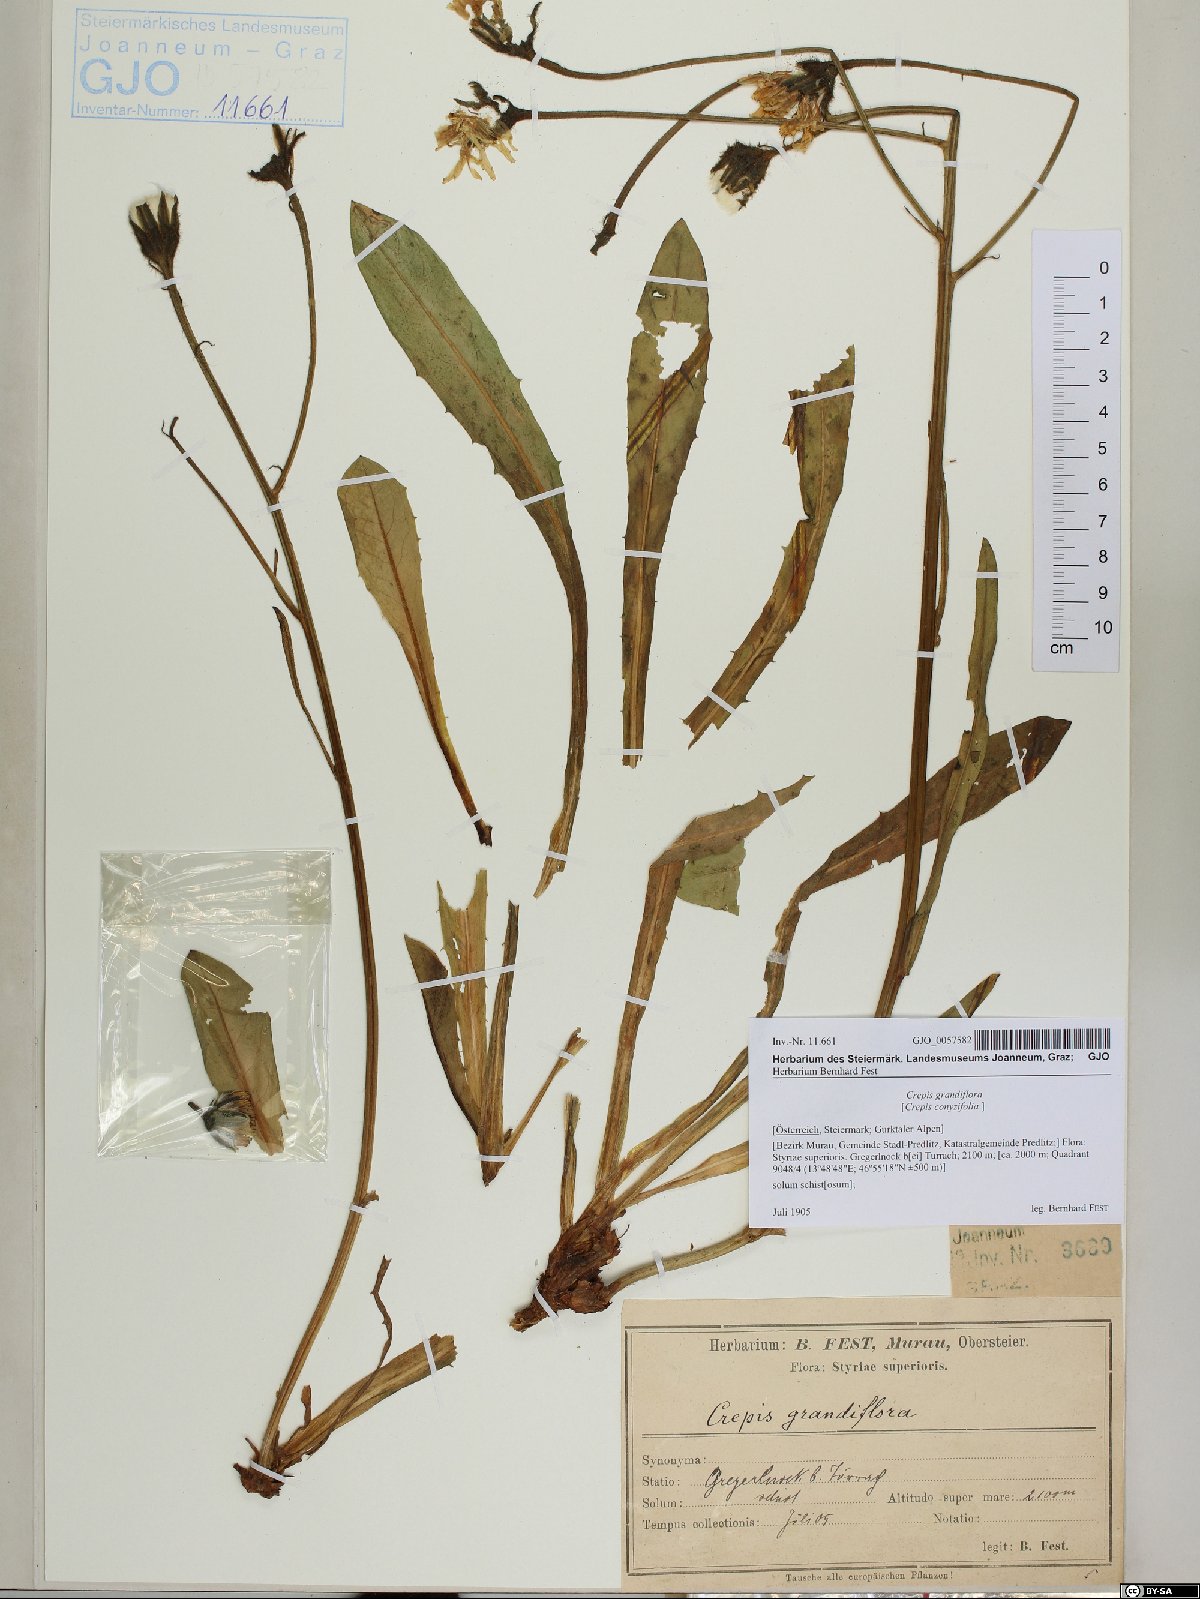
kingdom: Plantae
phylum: Tracheophyta
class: Magnoliopsida
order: Asterales
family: Asteraceae
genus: Crepis
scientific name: Crepis pyrenaica
